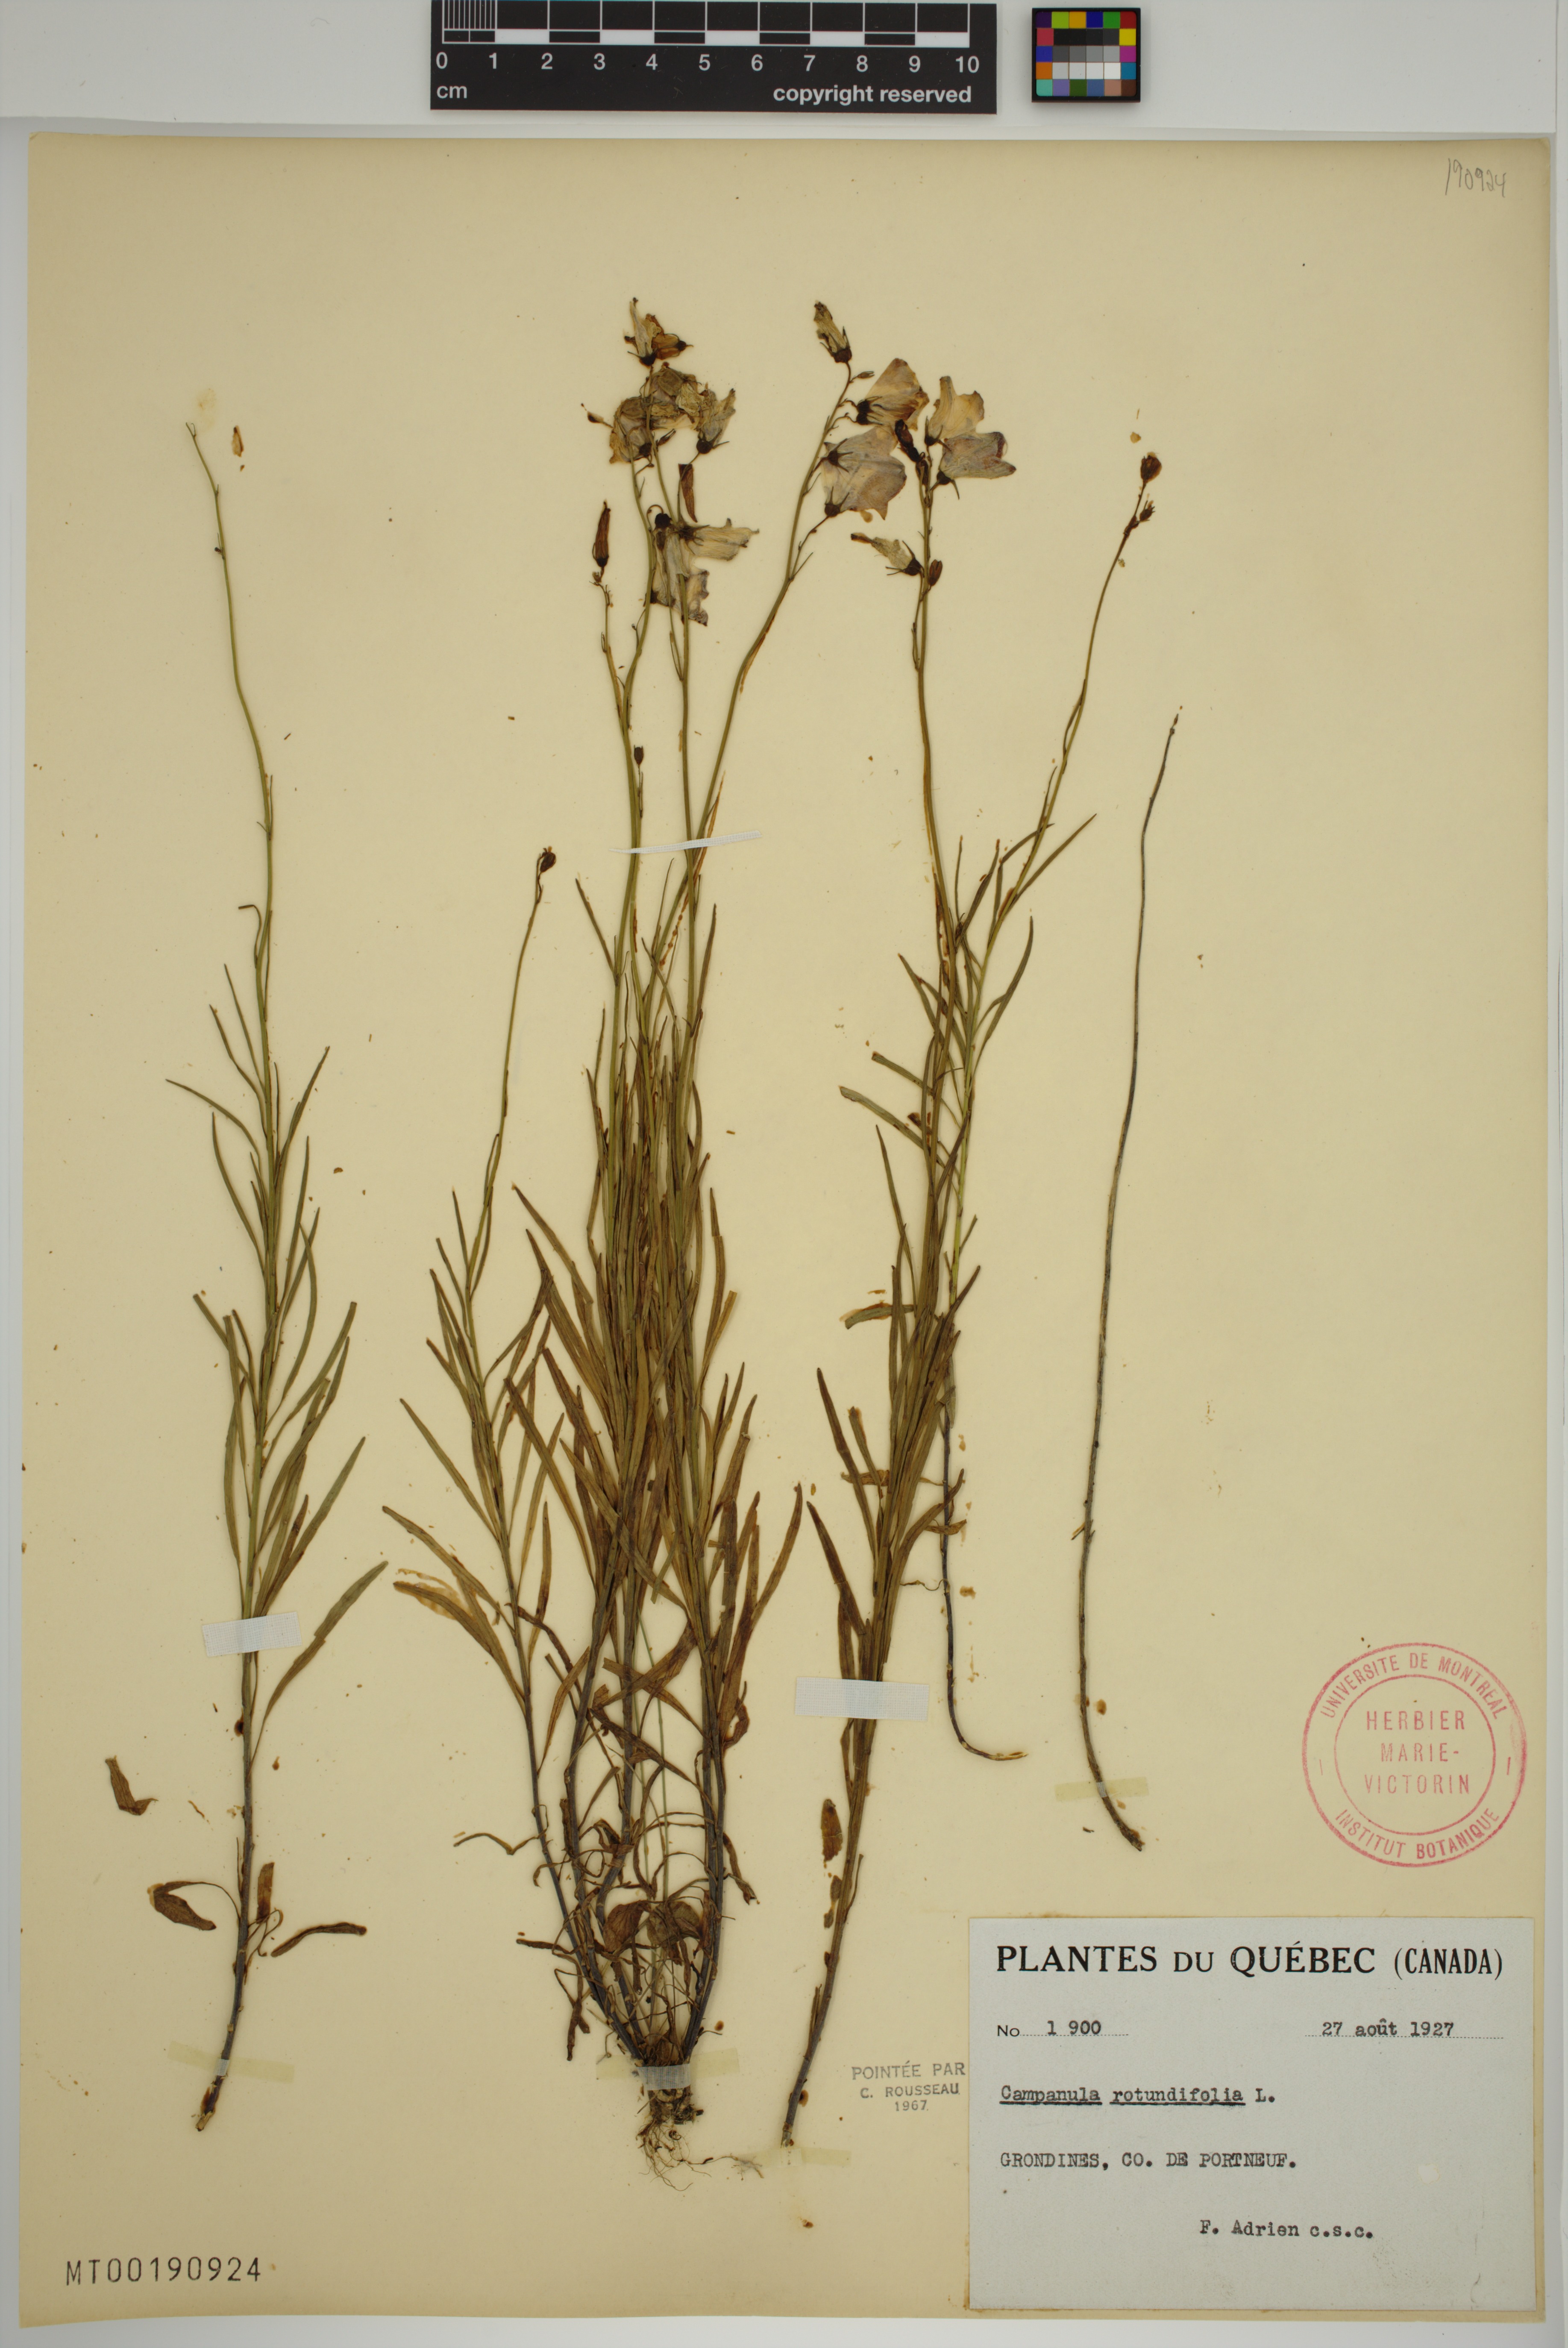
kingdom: Plantae
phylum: Tracheophyta
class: Magnoliopsida
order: Asterales
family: Campanulaceae
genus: Campanula
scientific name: Campanula rotundifolia
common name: Harebell
